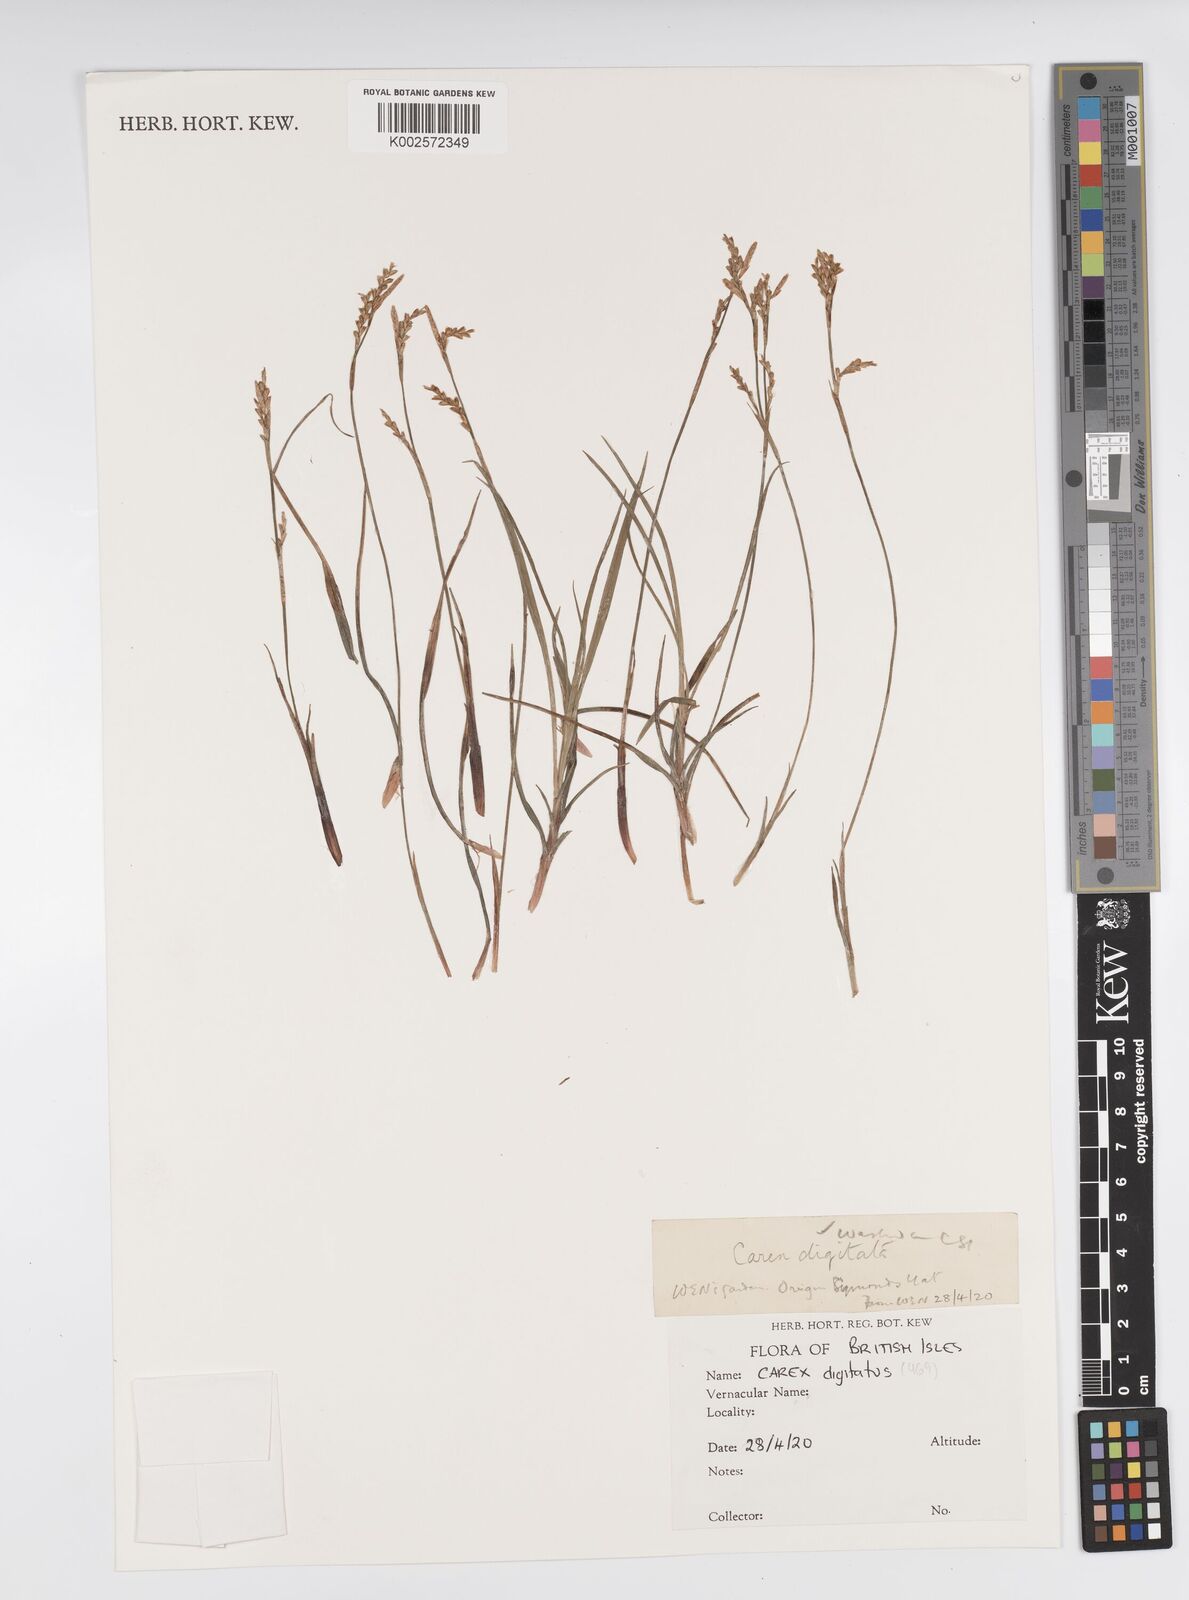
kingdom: Plantae
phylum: Tracheophyta
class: Liliopsida
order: Poales
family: Cyperaceae
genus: Carex
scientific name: Carex digitata
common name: Fingered sedge
